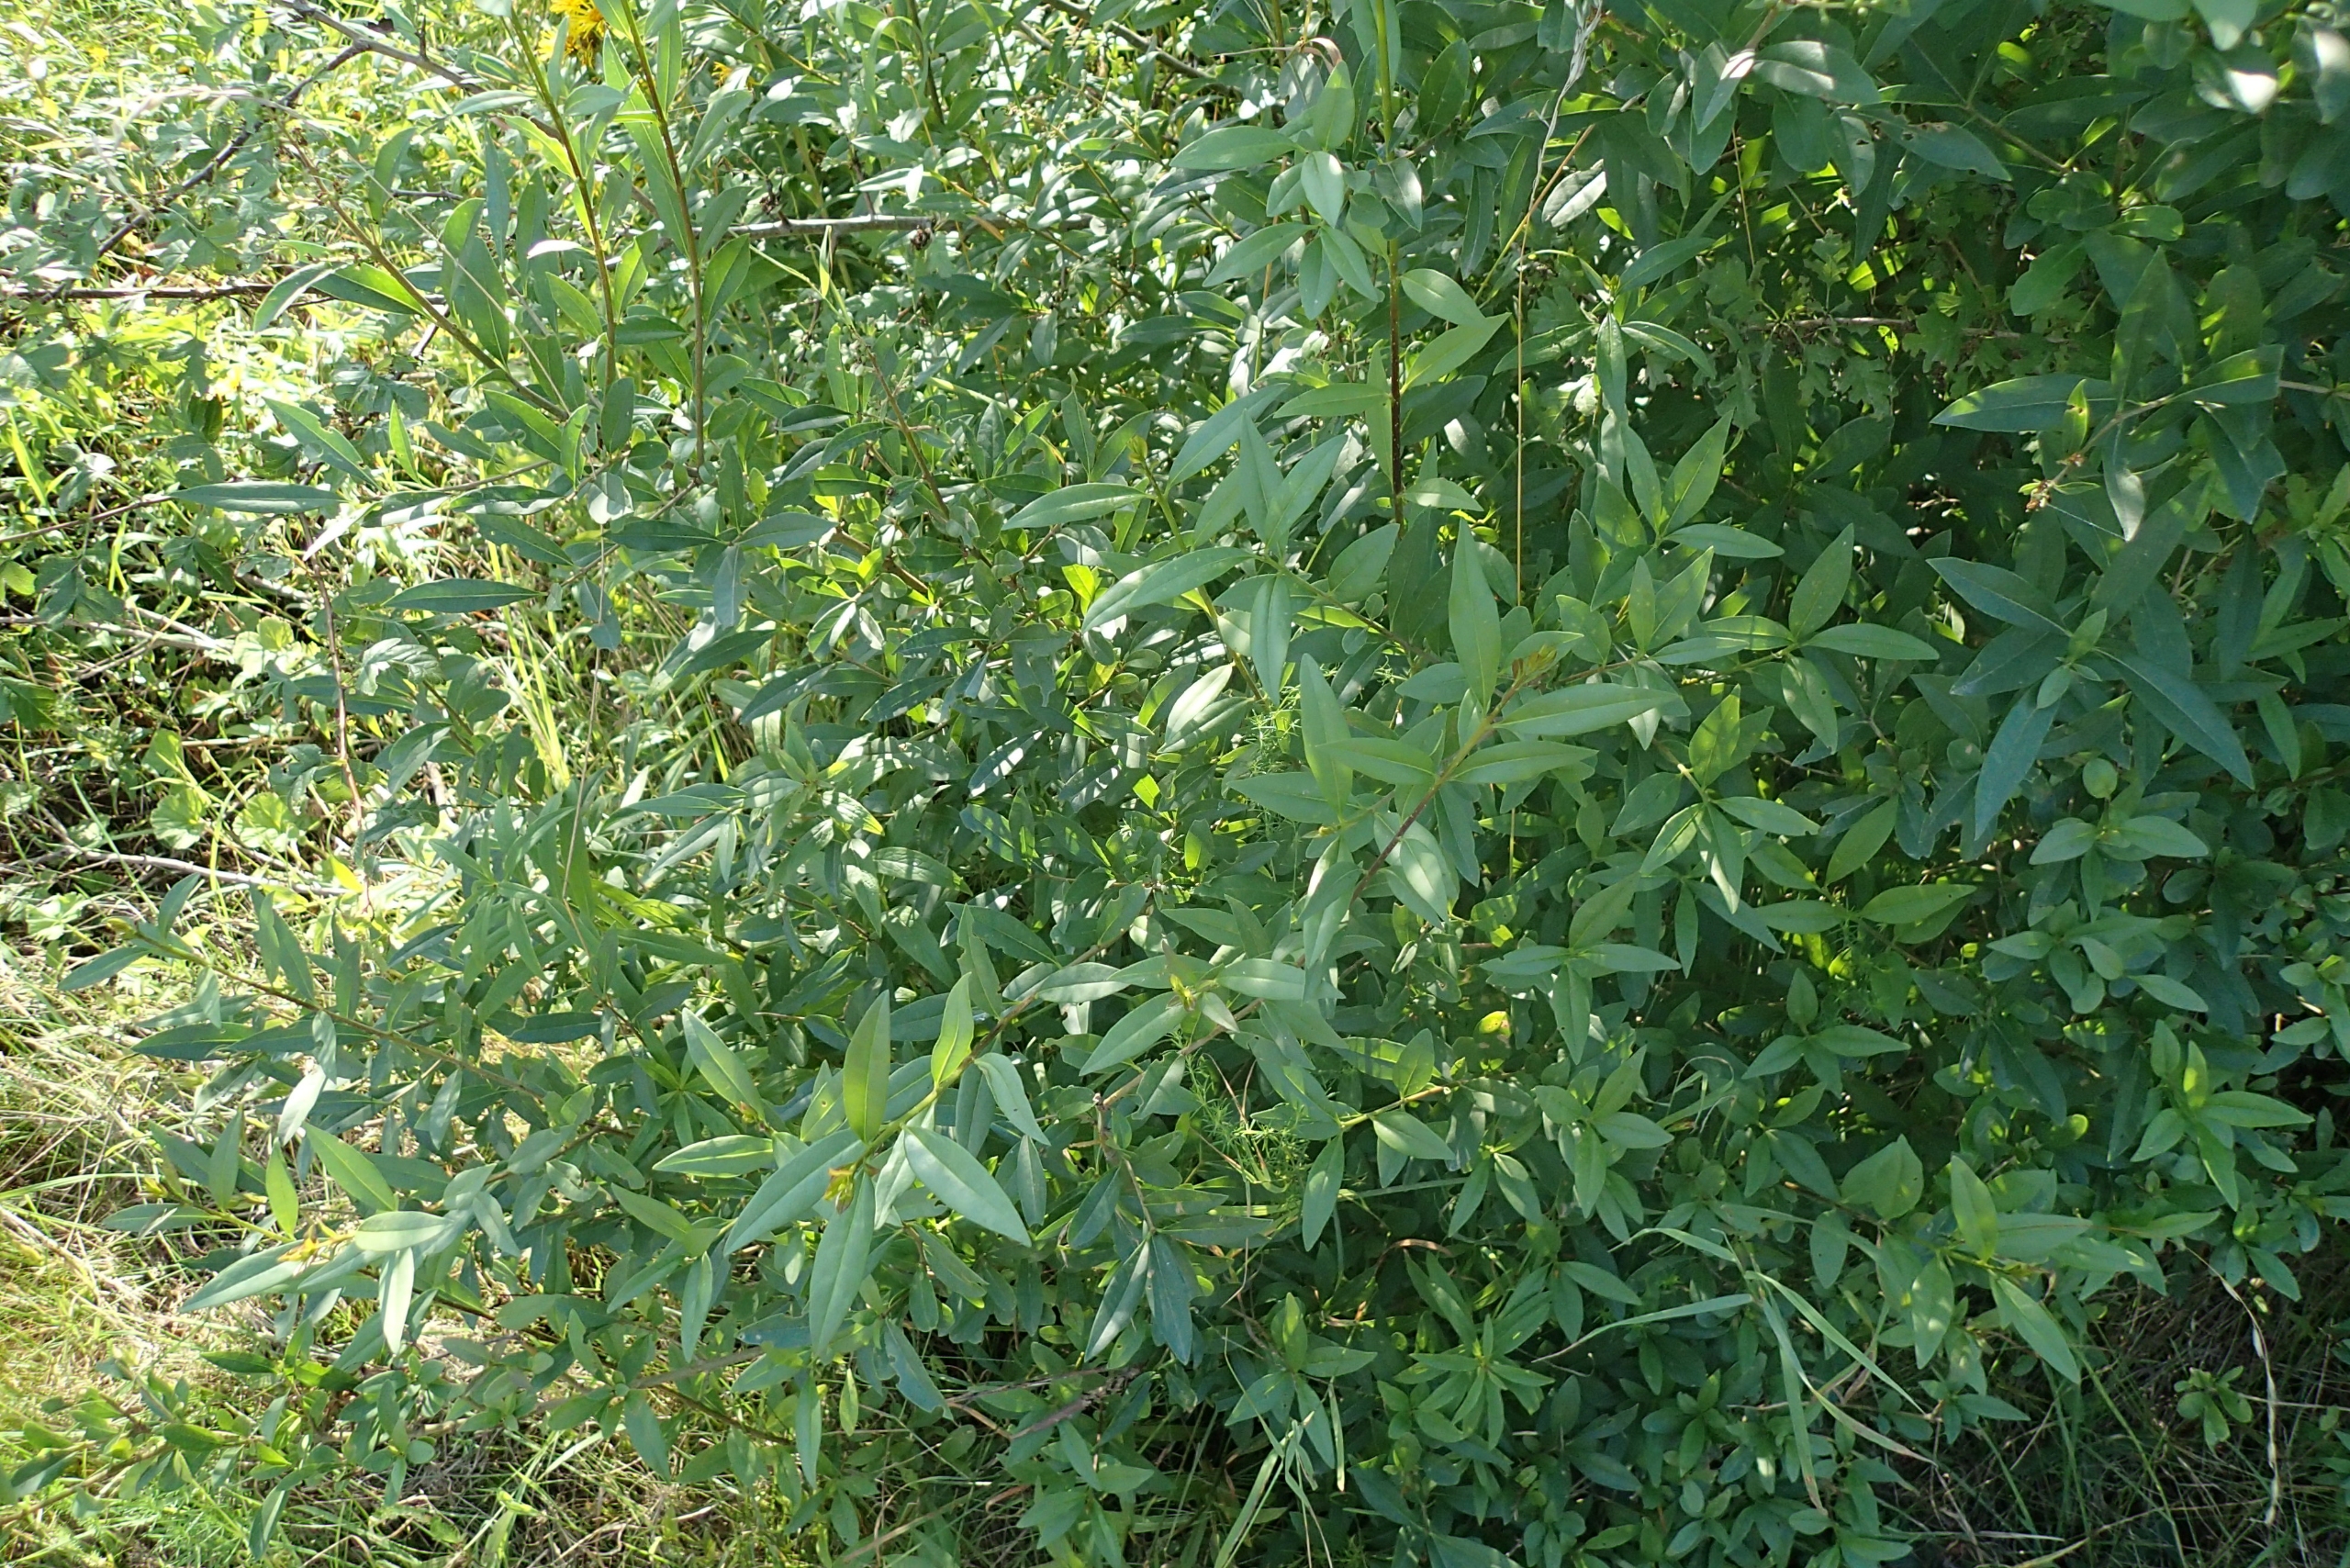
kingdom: Plantae
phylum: Tracheophyta
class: Magnoliopsida
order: Lamiales
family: Oleaceae
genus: Ligustrum
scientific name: Ligustrum vulgare
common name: Liguster
